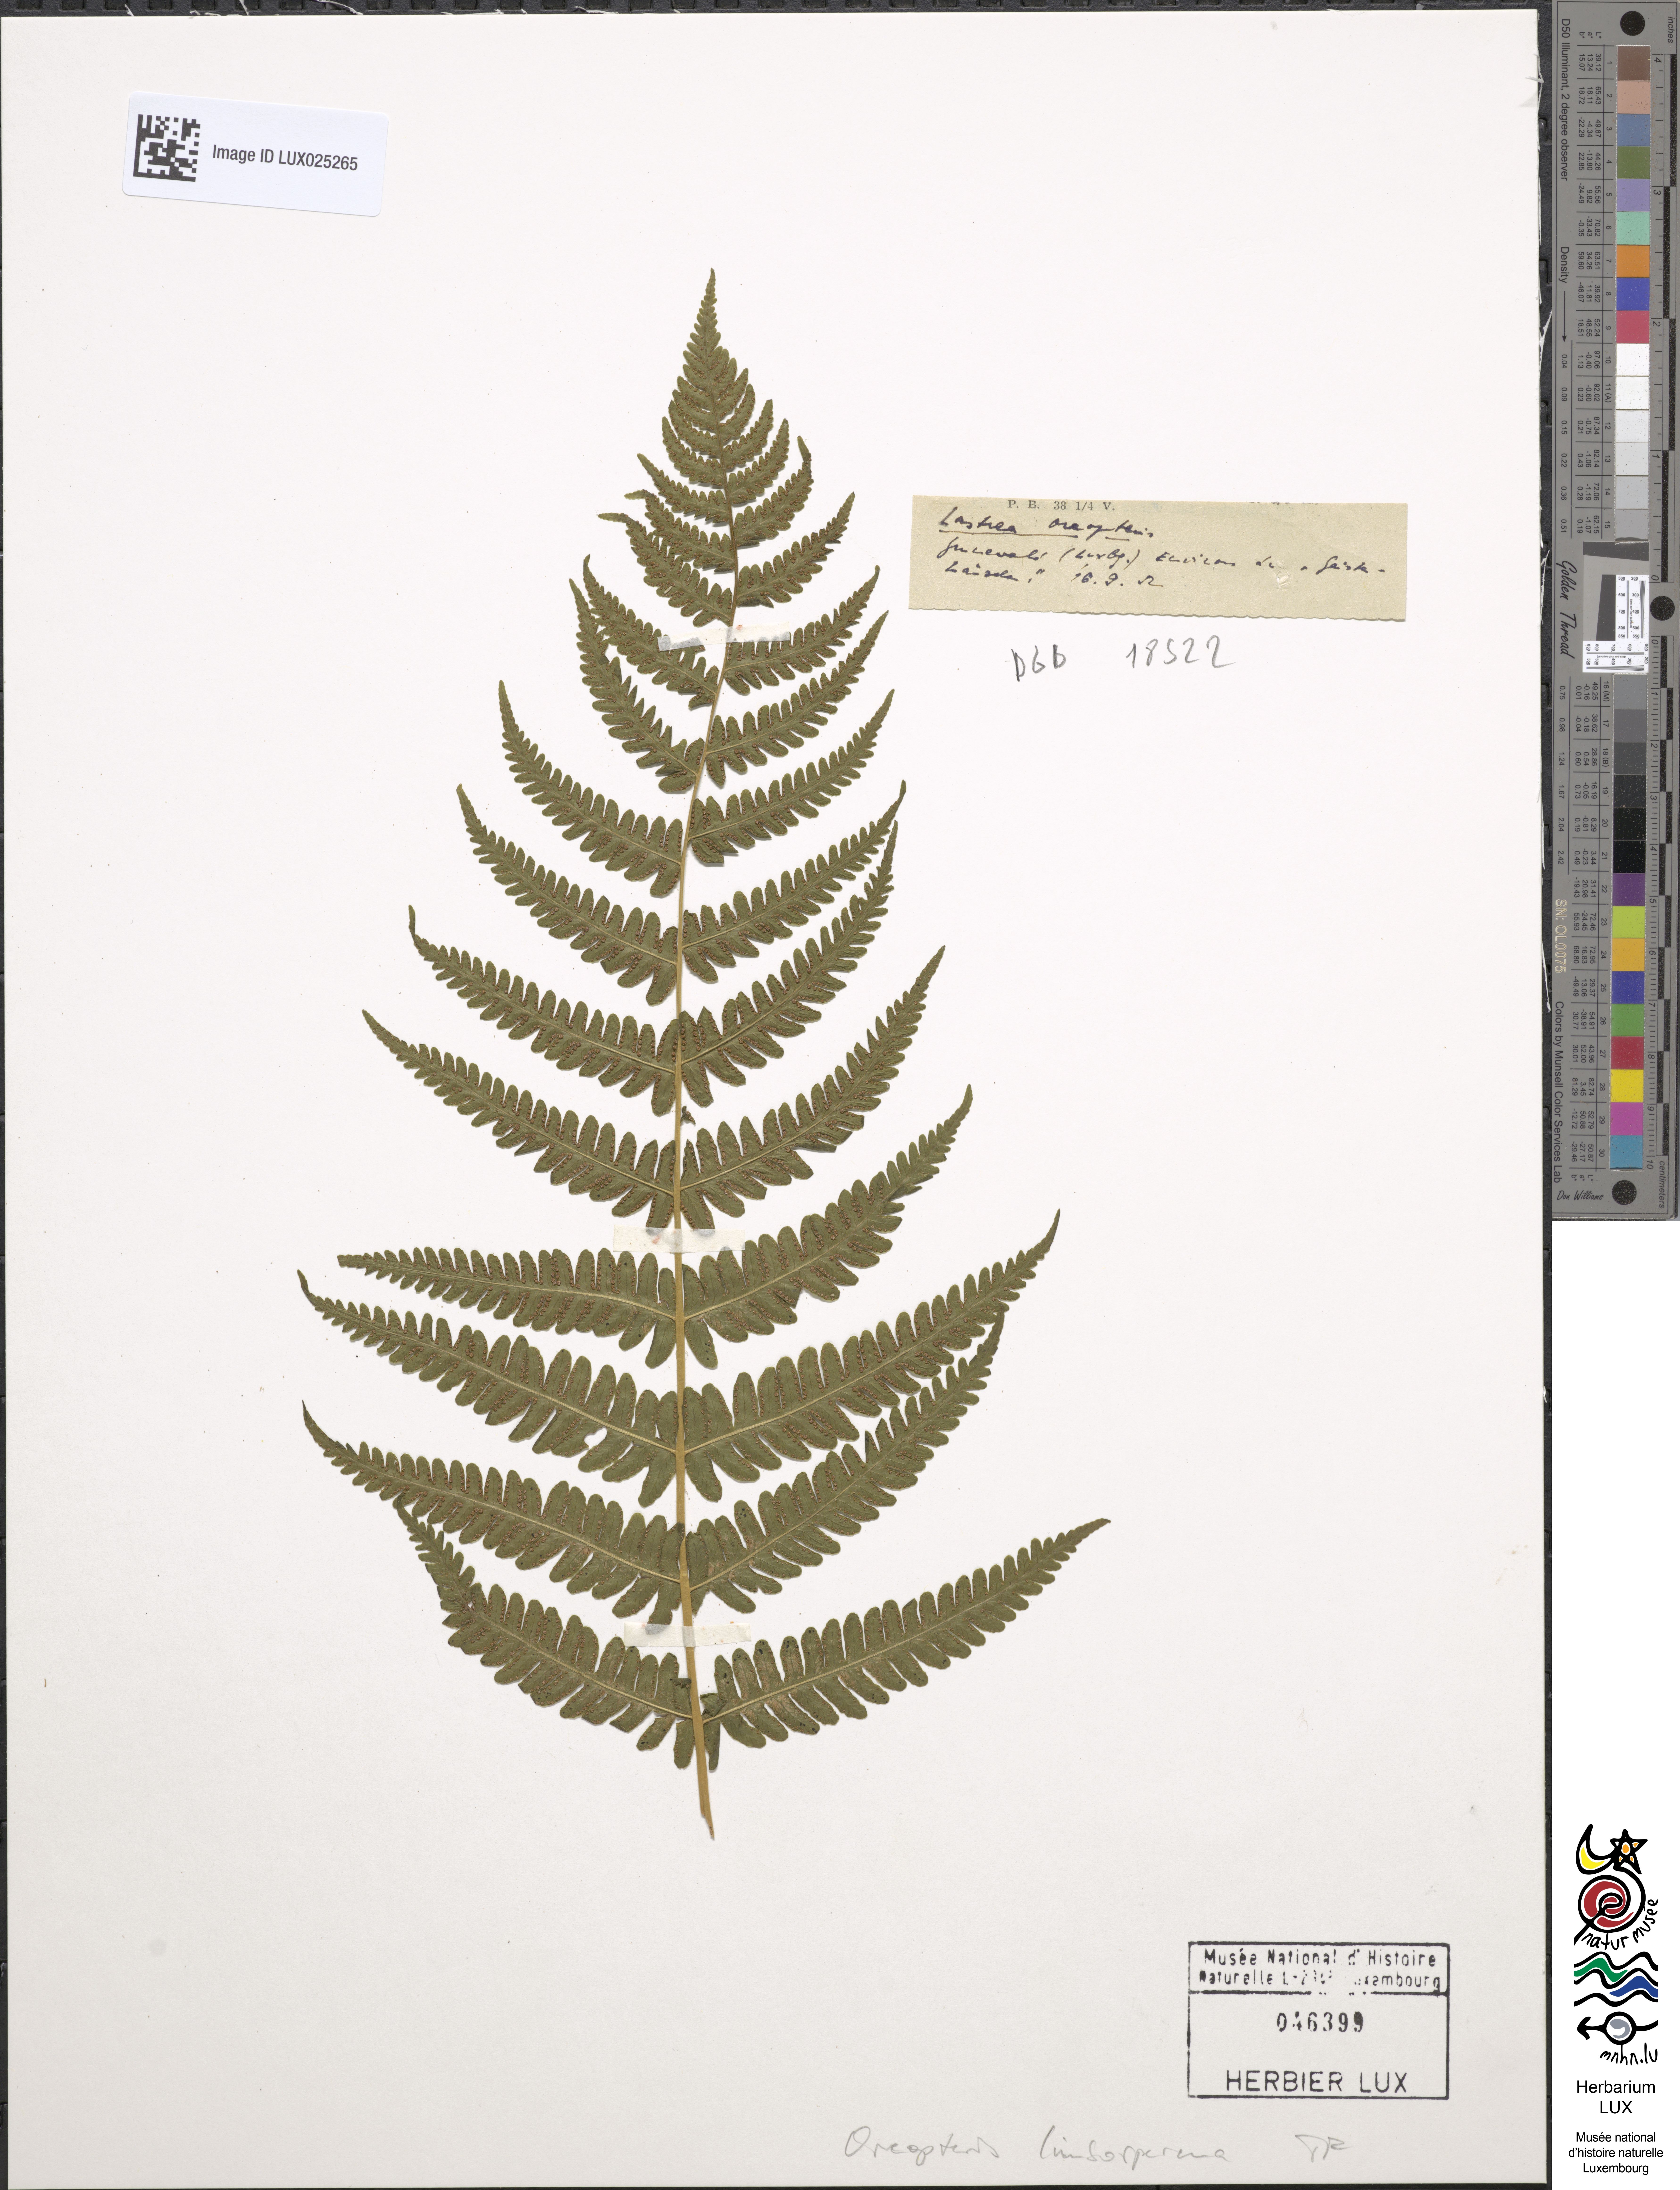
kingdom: Plantae
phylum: Tracheophyta
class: Polypodiopsida
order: Polypodiales
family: Thelypteridaceae
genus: Oreopteris
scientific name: Oreopteris limbosperma
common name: Lemon-scented fern
